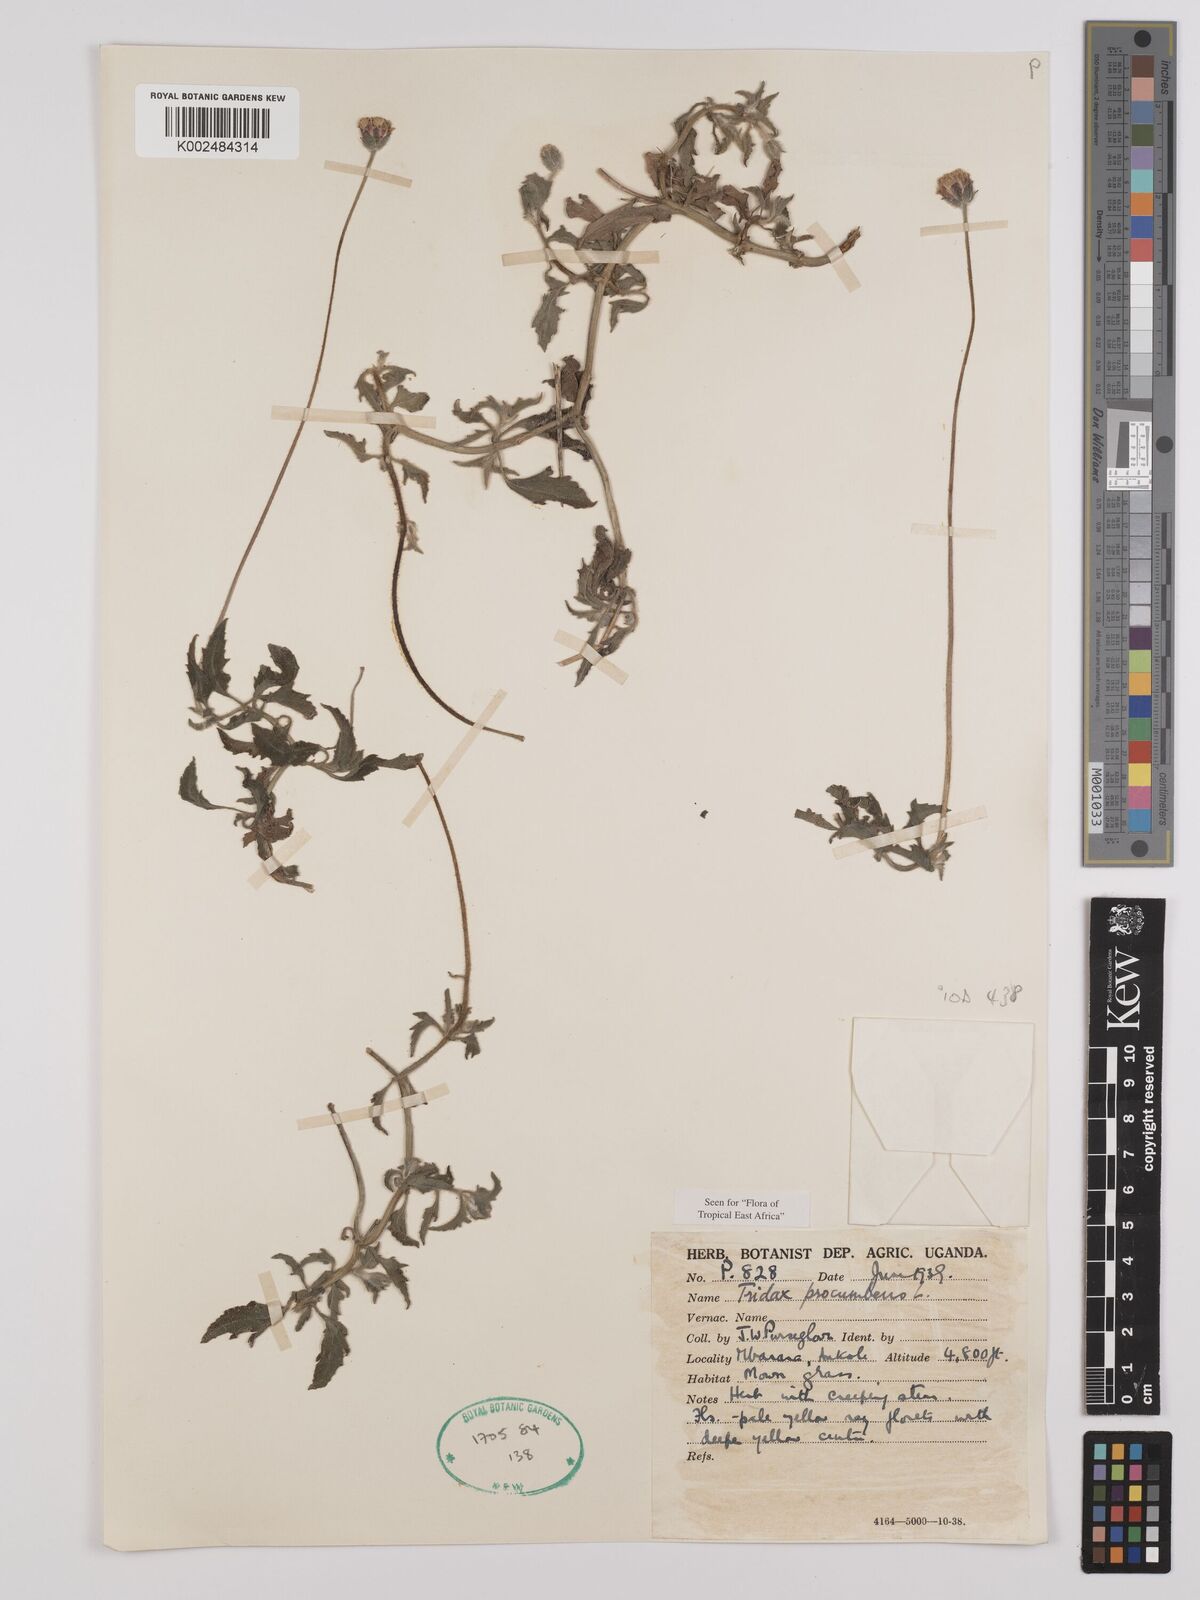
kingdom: Plantae
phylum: Tracheophyta
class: Magnoliopsida
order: Asterales
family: Asteraceae
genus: Tridax
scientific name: Tridax procumbens
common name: Coatbuttons
